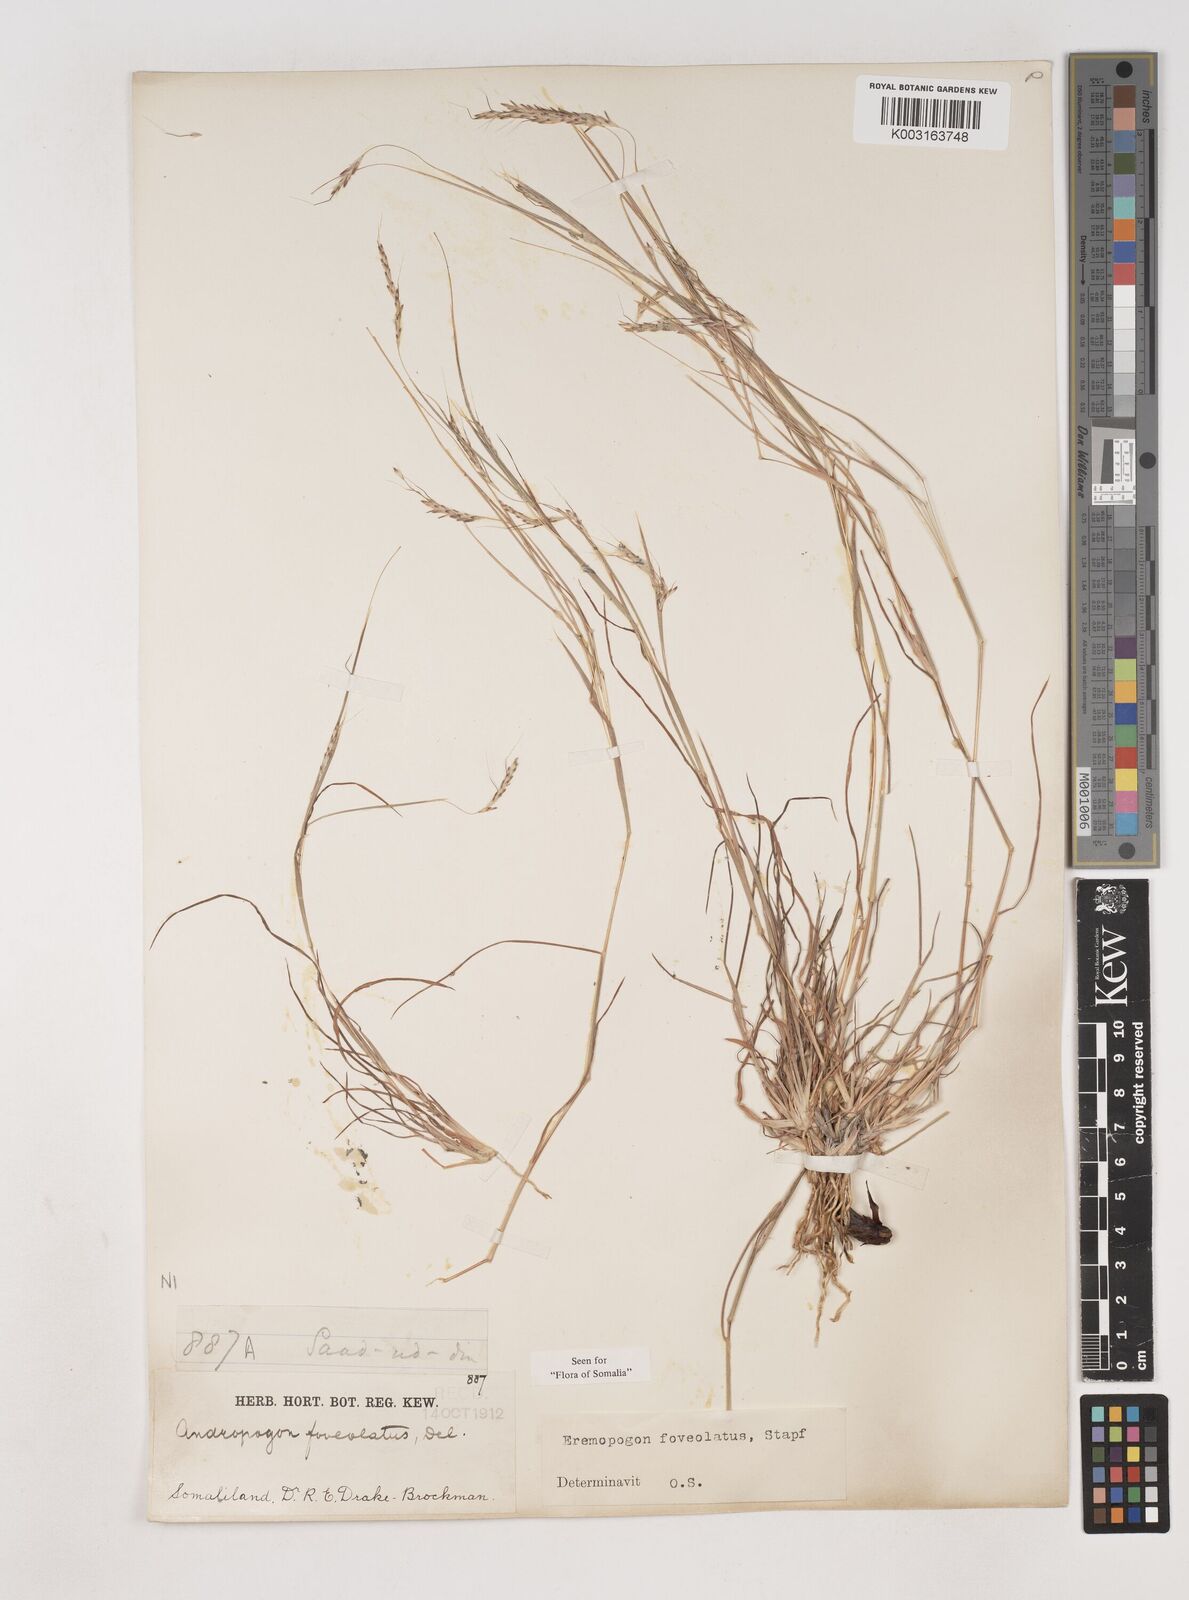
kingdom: Plantae
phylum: Tracheophyta
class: Liliopsida
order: Poales
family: Poaceae
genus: Dichanthium
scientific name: Dichanthium foveolatum
